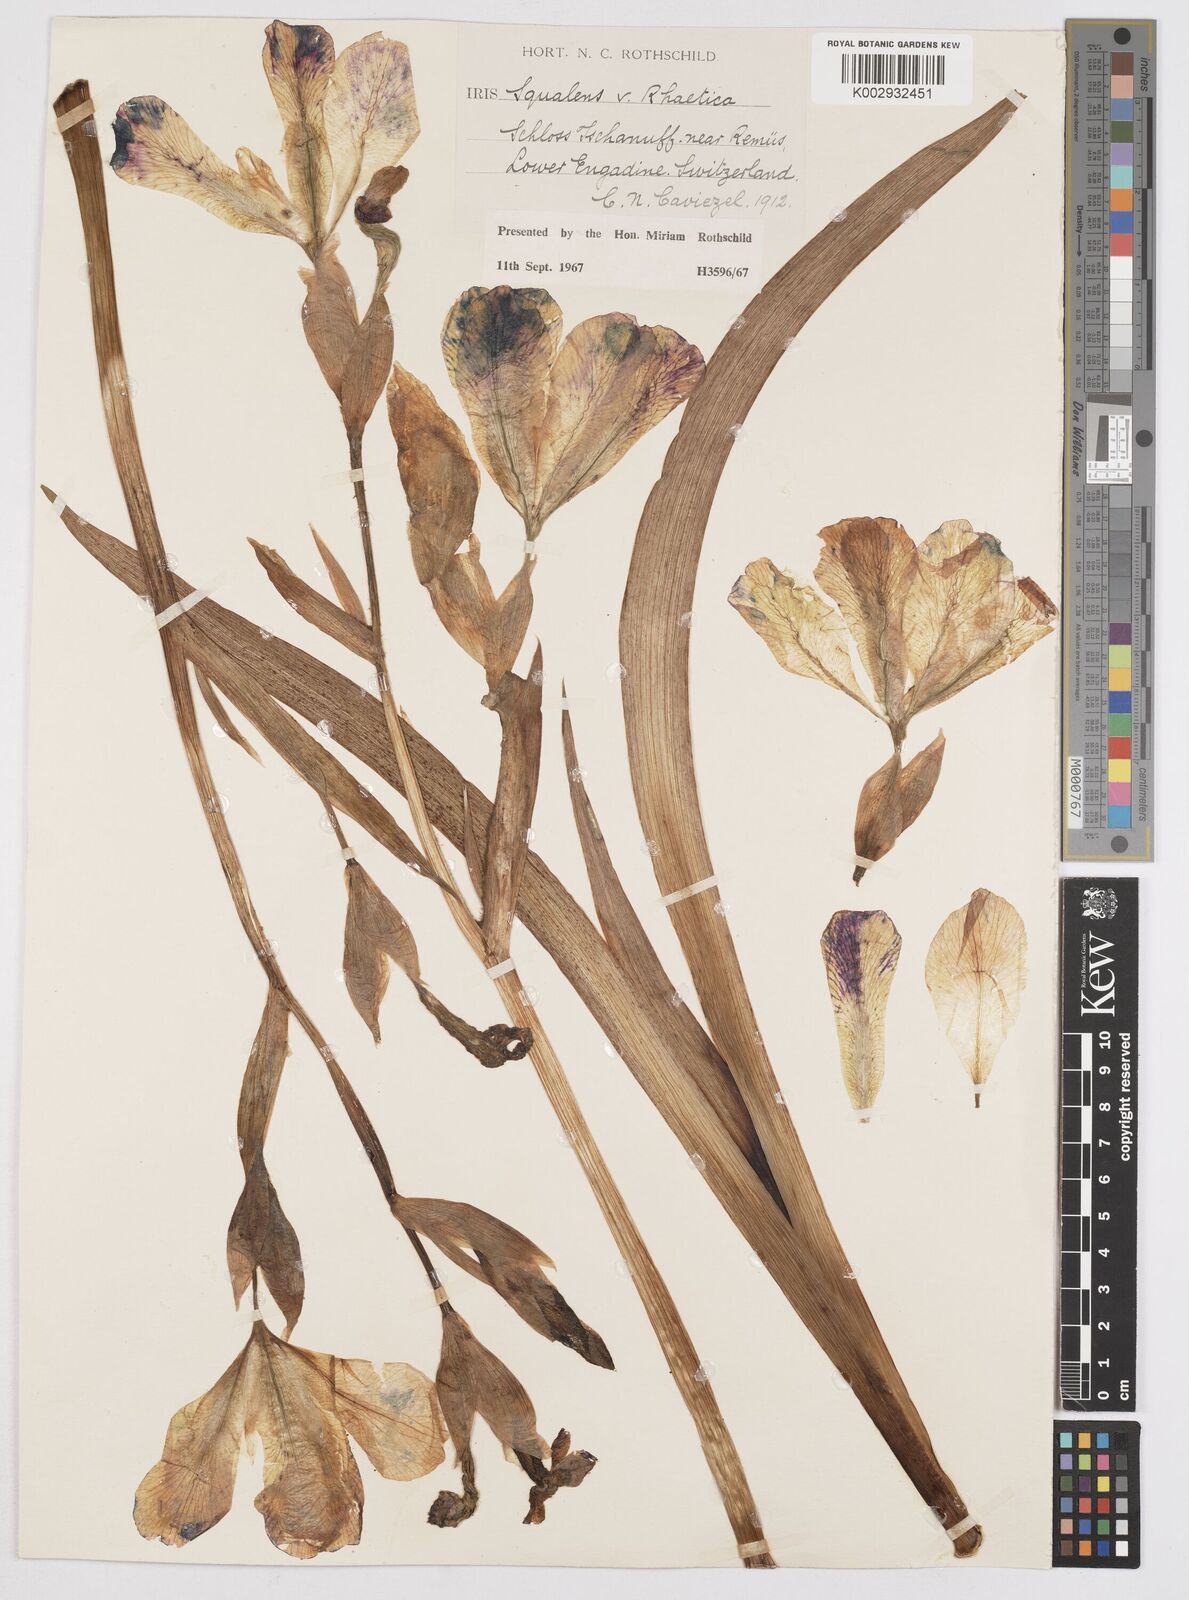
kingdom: Plantae
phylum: Tracheophyta
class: Liliopsida
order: Asparagales
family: Iridaceae
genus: Iris
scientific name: Iris
